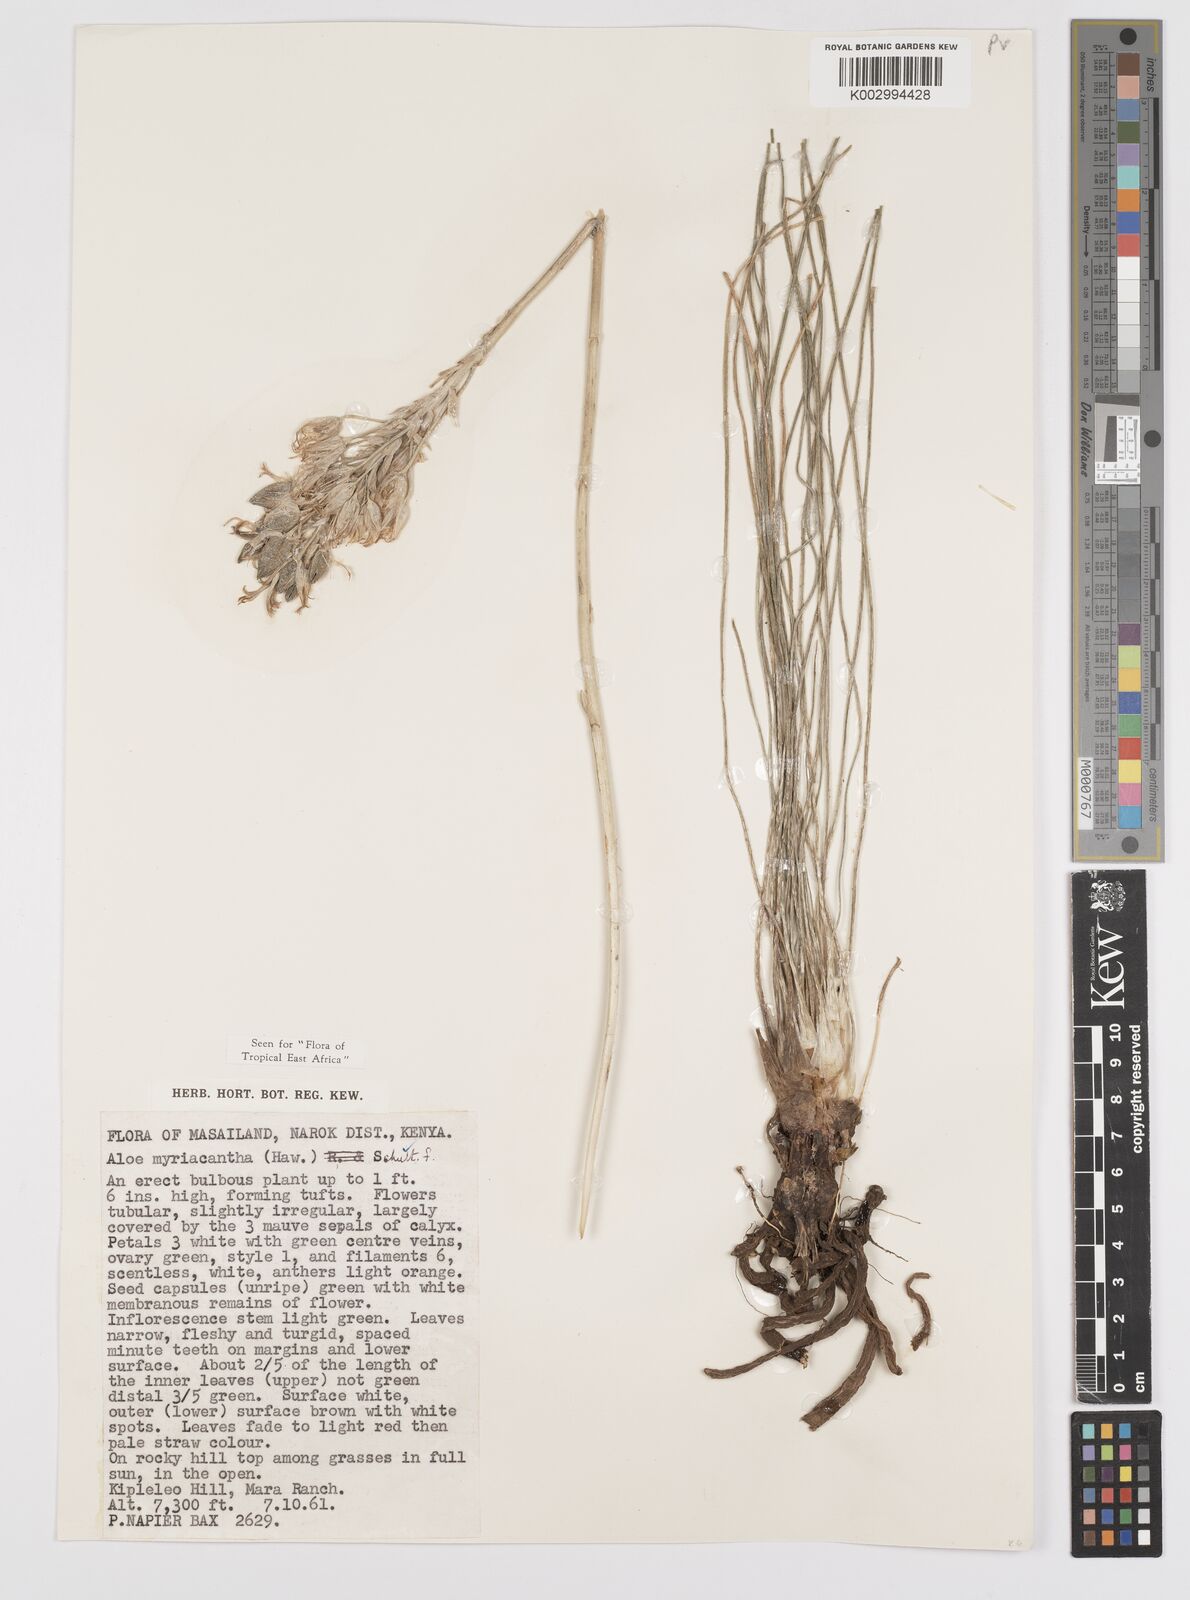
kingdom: Plantae
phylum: Tracheophyta
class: Liliopsida
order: Asparagales
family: Asphodelaceae
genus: Aloe
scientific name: Aloe myriacantha
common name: Grass aloe
